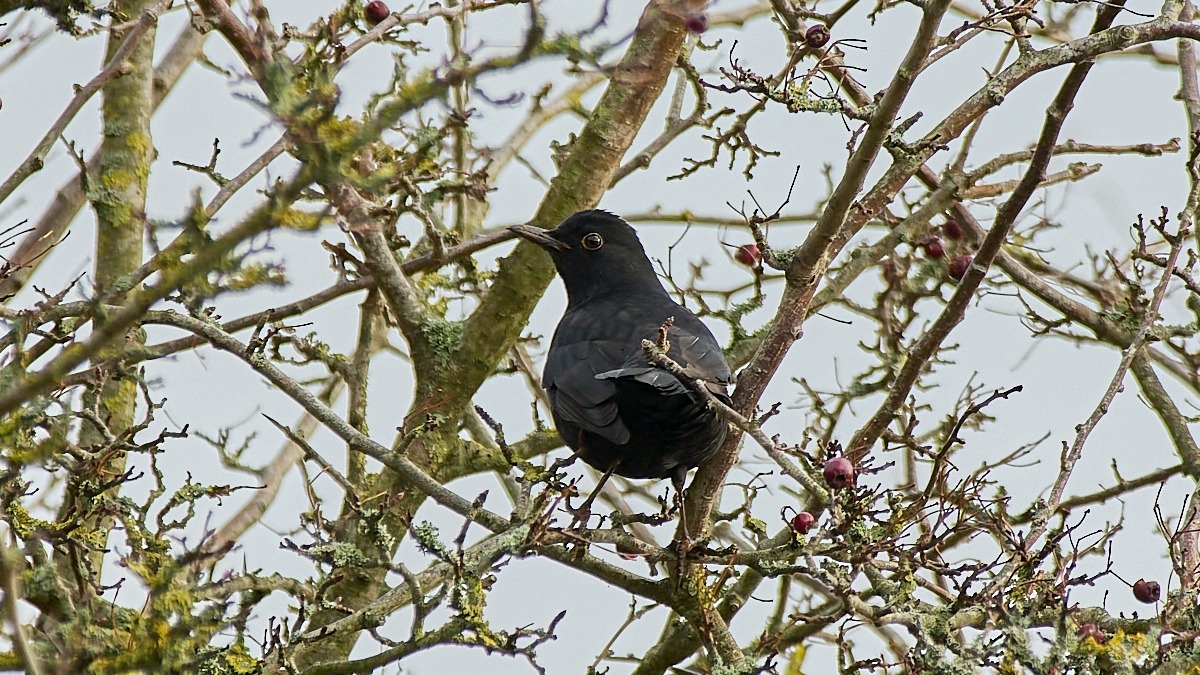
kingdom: Animalia
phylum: Chordata
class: Aves
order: Passeriformes
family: Turdidae
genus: Turdus
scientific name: Turdus merula
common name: Solsort
